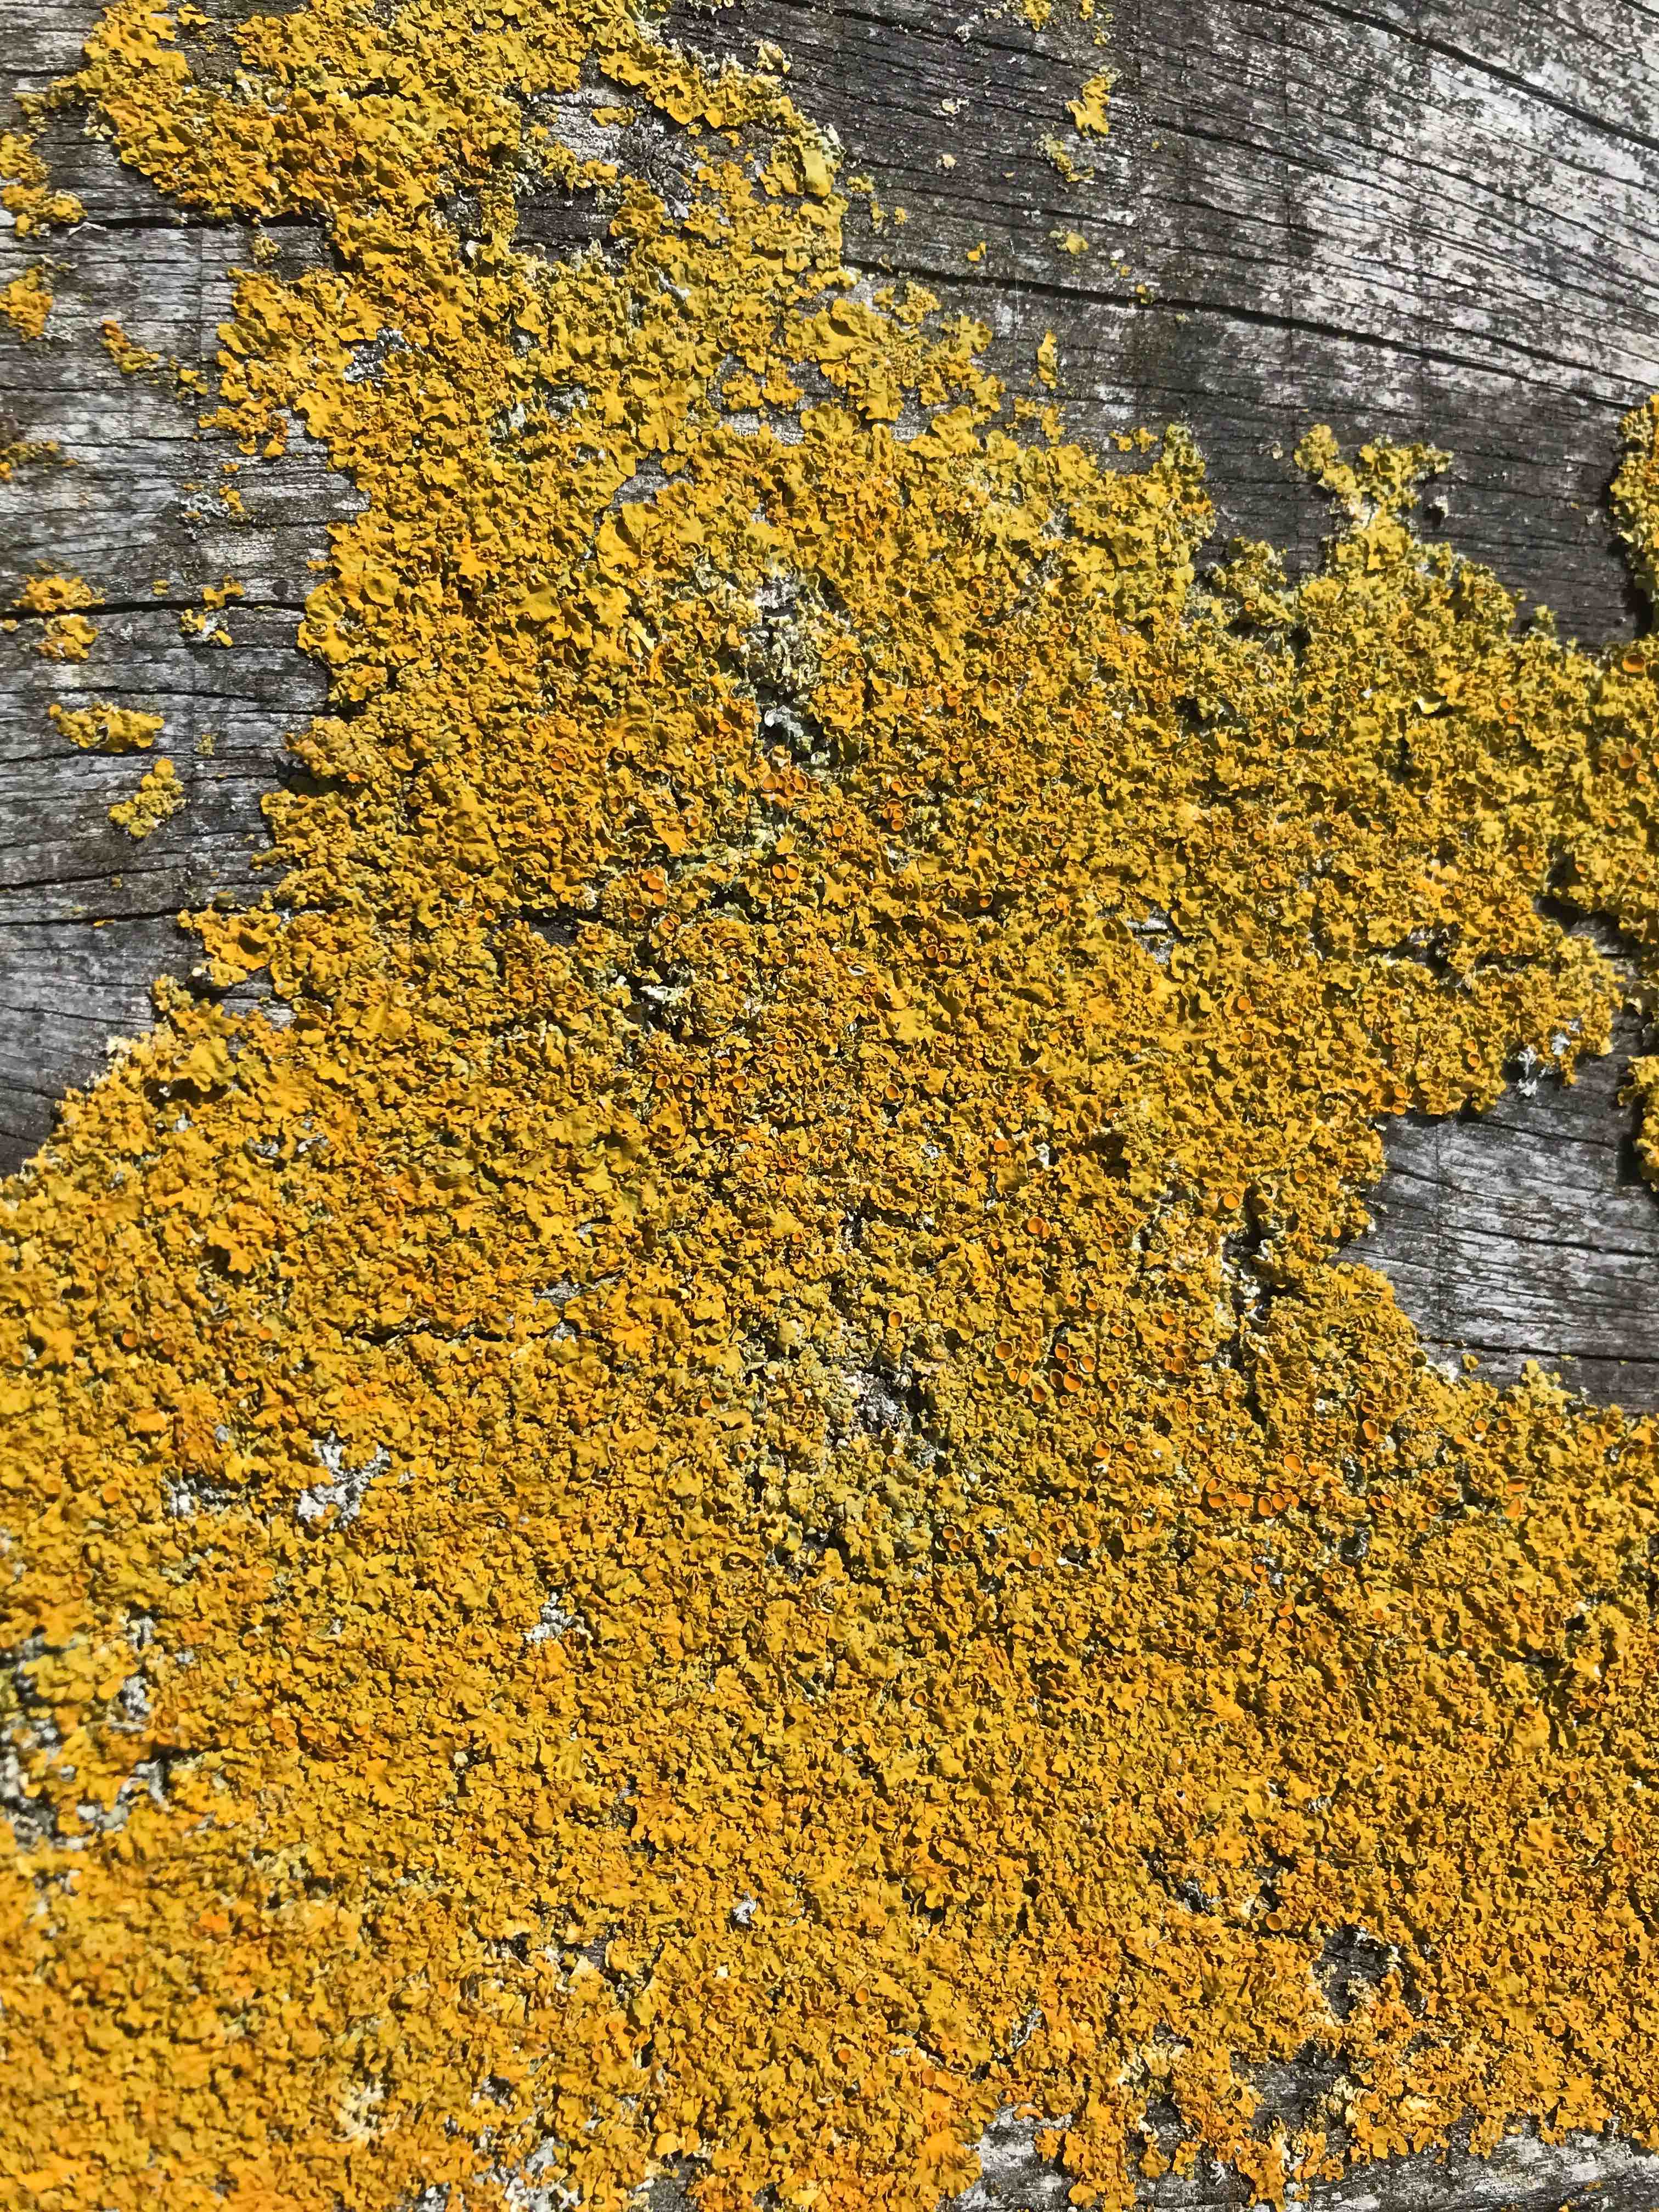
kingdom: Fungi
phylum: Ascomycota
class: Lecanoromycetes
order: Teloschistales
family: Teloschistaceae
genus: Xanthoria
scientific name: Xanthoria parietina
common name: almindelig væggelav
